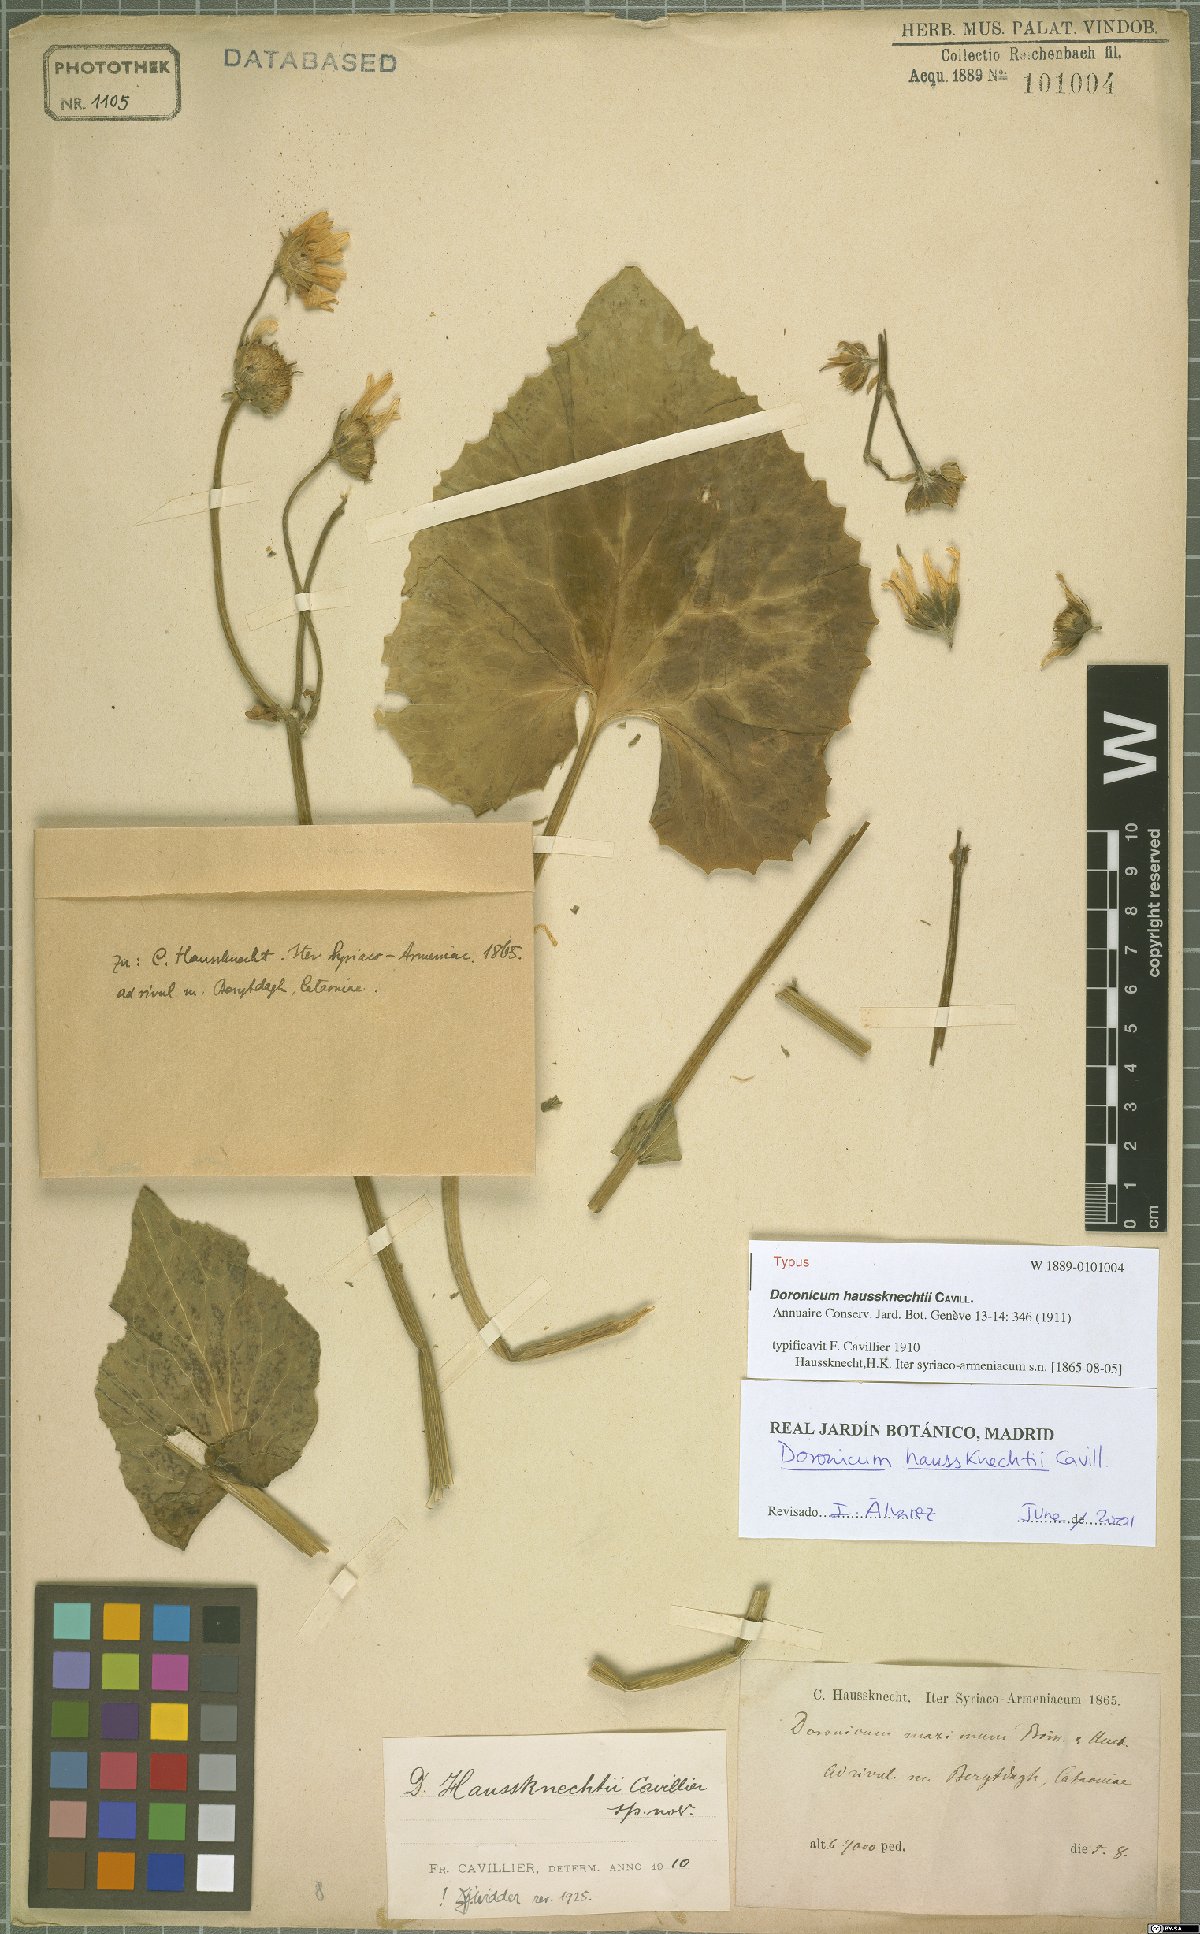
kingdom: Plantae
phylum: Tracheophyta
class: Magnoliopsida
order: Asterales
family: Asteraceae
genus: Doronicum
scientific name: Doronicum haussknechtii
